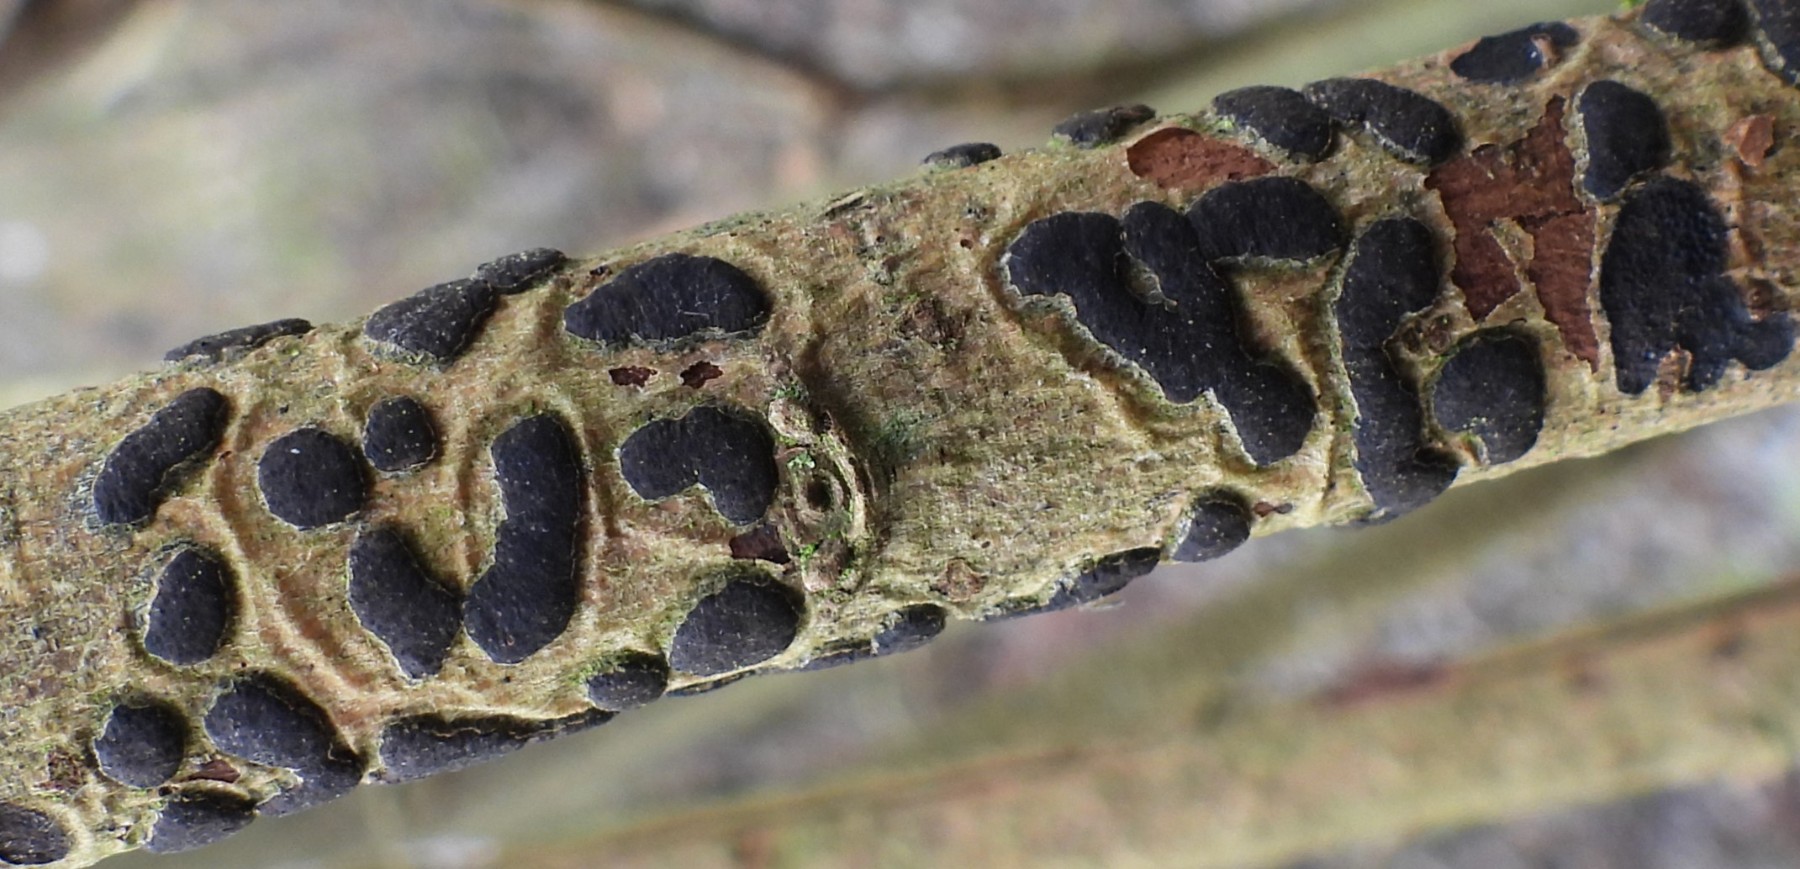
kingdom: Fungi
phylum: Ascomycota
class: Sordariomycetes
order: Xylariales
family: Diatrypaceae
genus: Diatrype
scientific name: Diatrype bullata
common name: pile-kulskorpe
